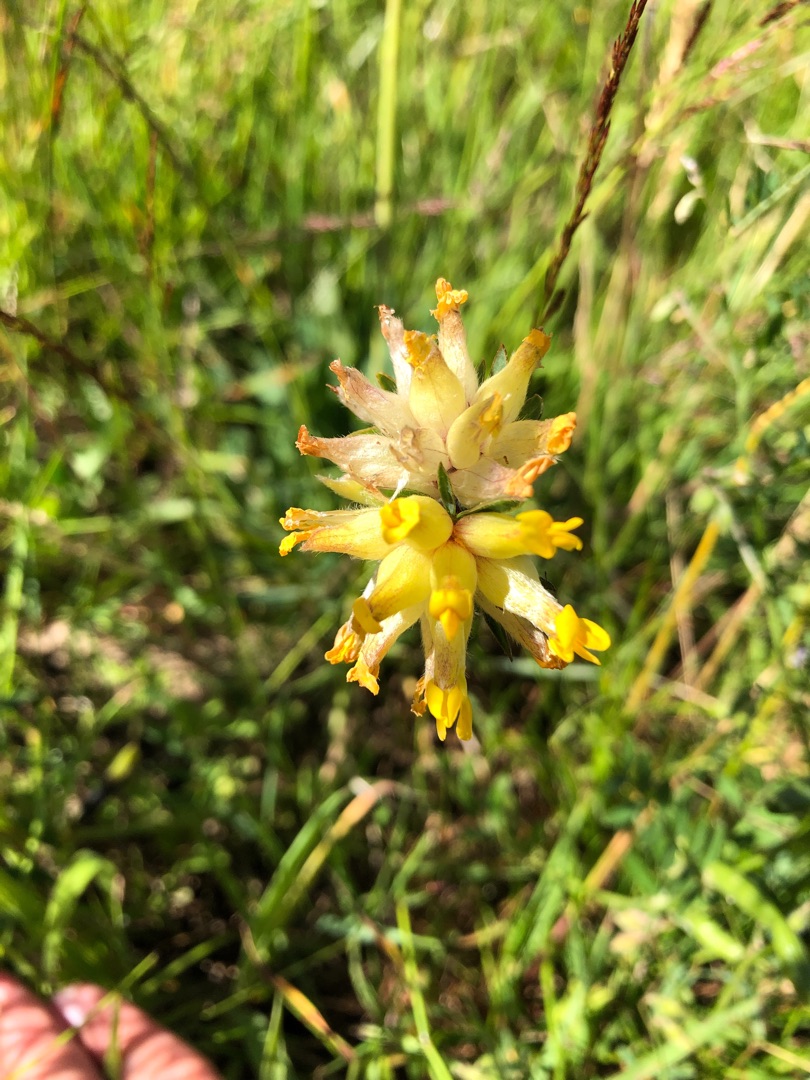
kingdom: Plantae
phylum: Tracheophyta
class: Magnoliopsida
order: Fabales
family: Fabaceae
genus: Anthyllis
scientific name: Anthyllis vulneraria
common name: Rundbælg
